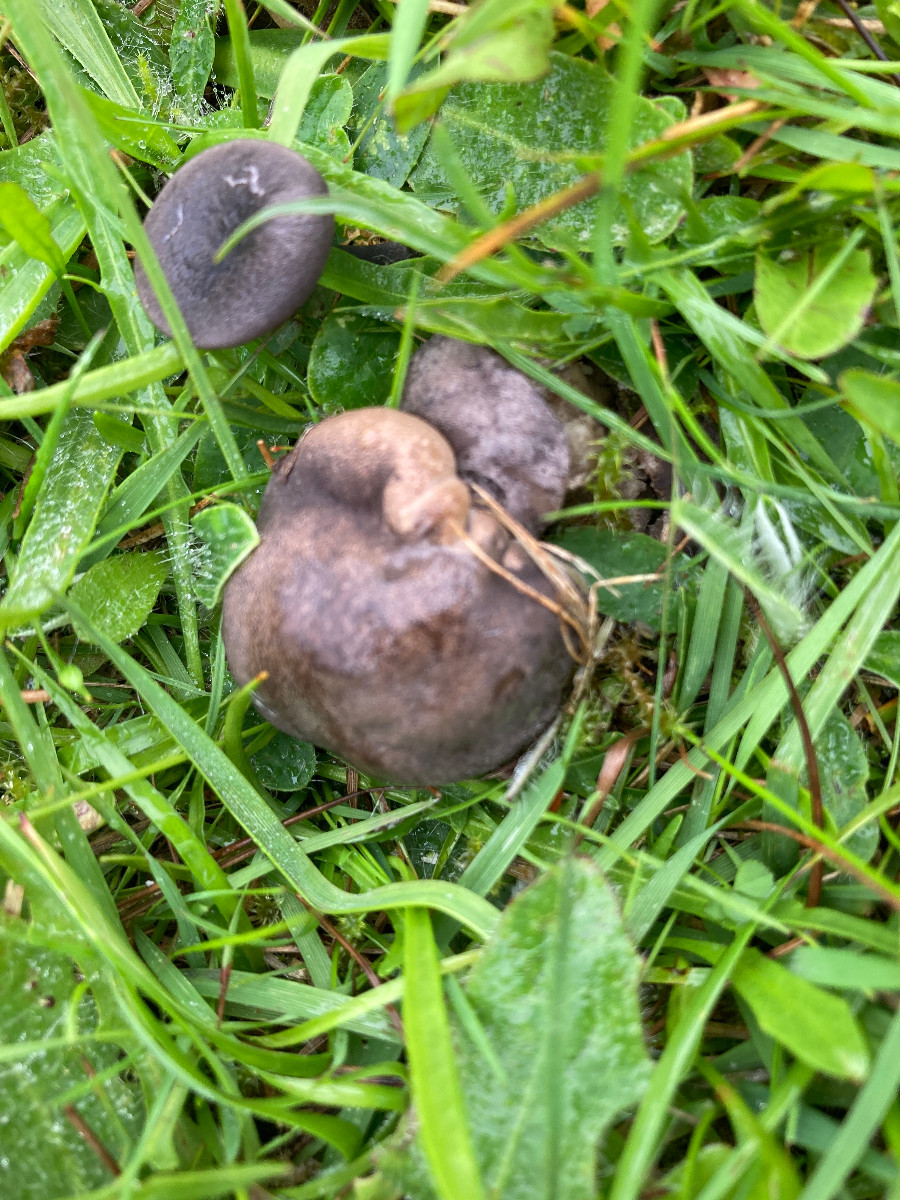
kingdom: Fungi
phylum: Basidiomycota
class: Agaricomycetes
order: Agaricales
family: Tricholomataceae
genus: Pseudotricholoma
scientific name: Pseudotricholoma metapodium
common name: rødmende alfehat
